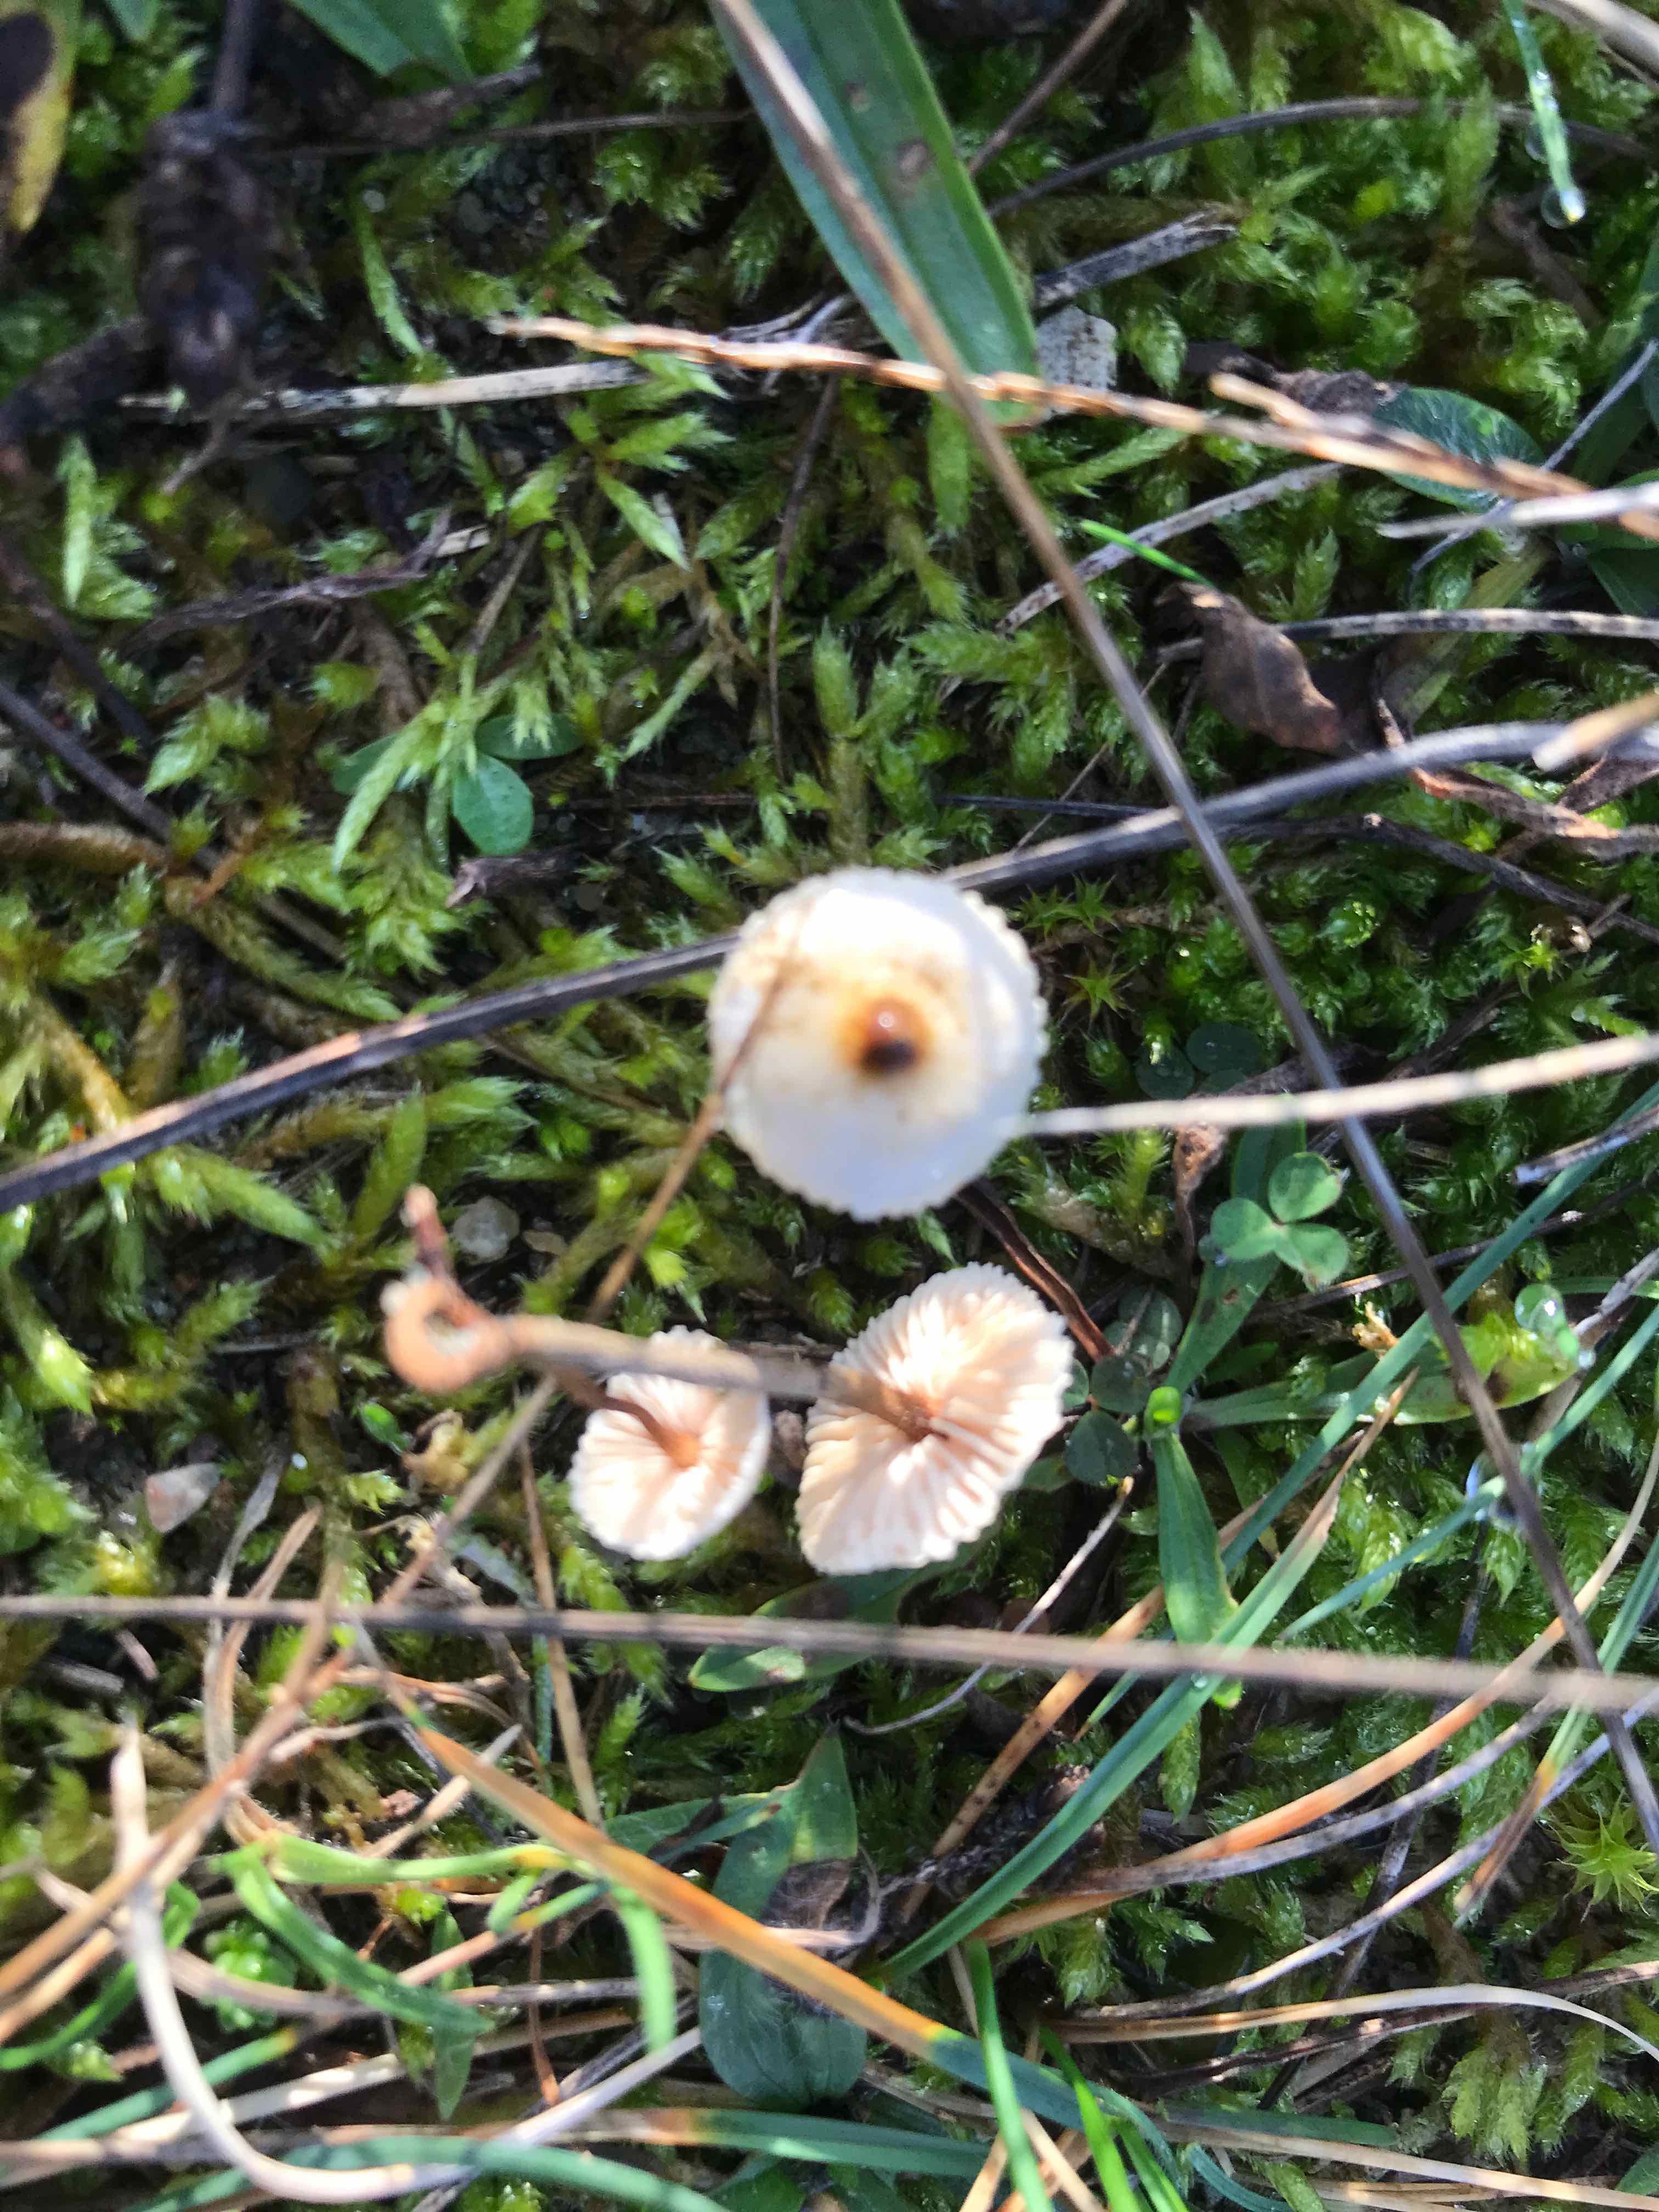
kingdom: Fungi
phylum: Basidiomycota
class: Agaricomycetes
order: Agaricales
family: Marasmiaceae
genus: Crinipellis
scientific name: Crinipellis scabella
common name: børstefod
